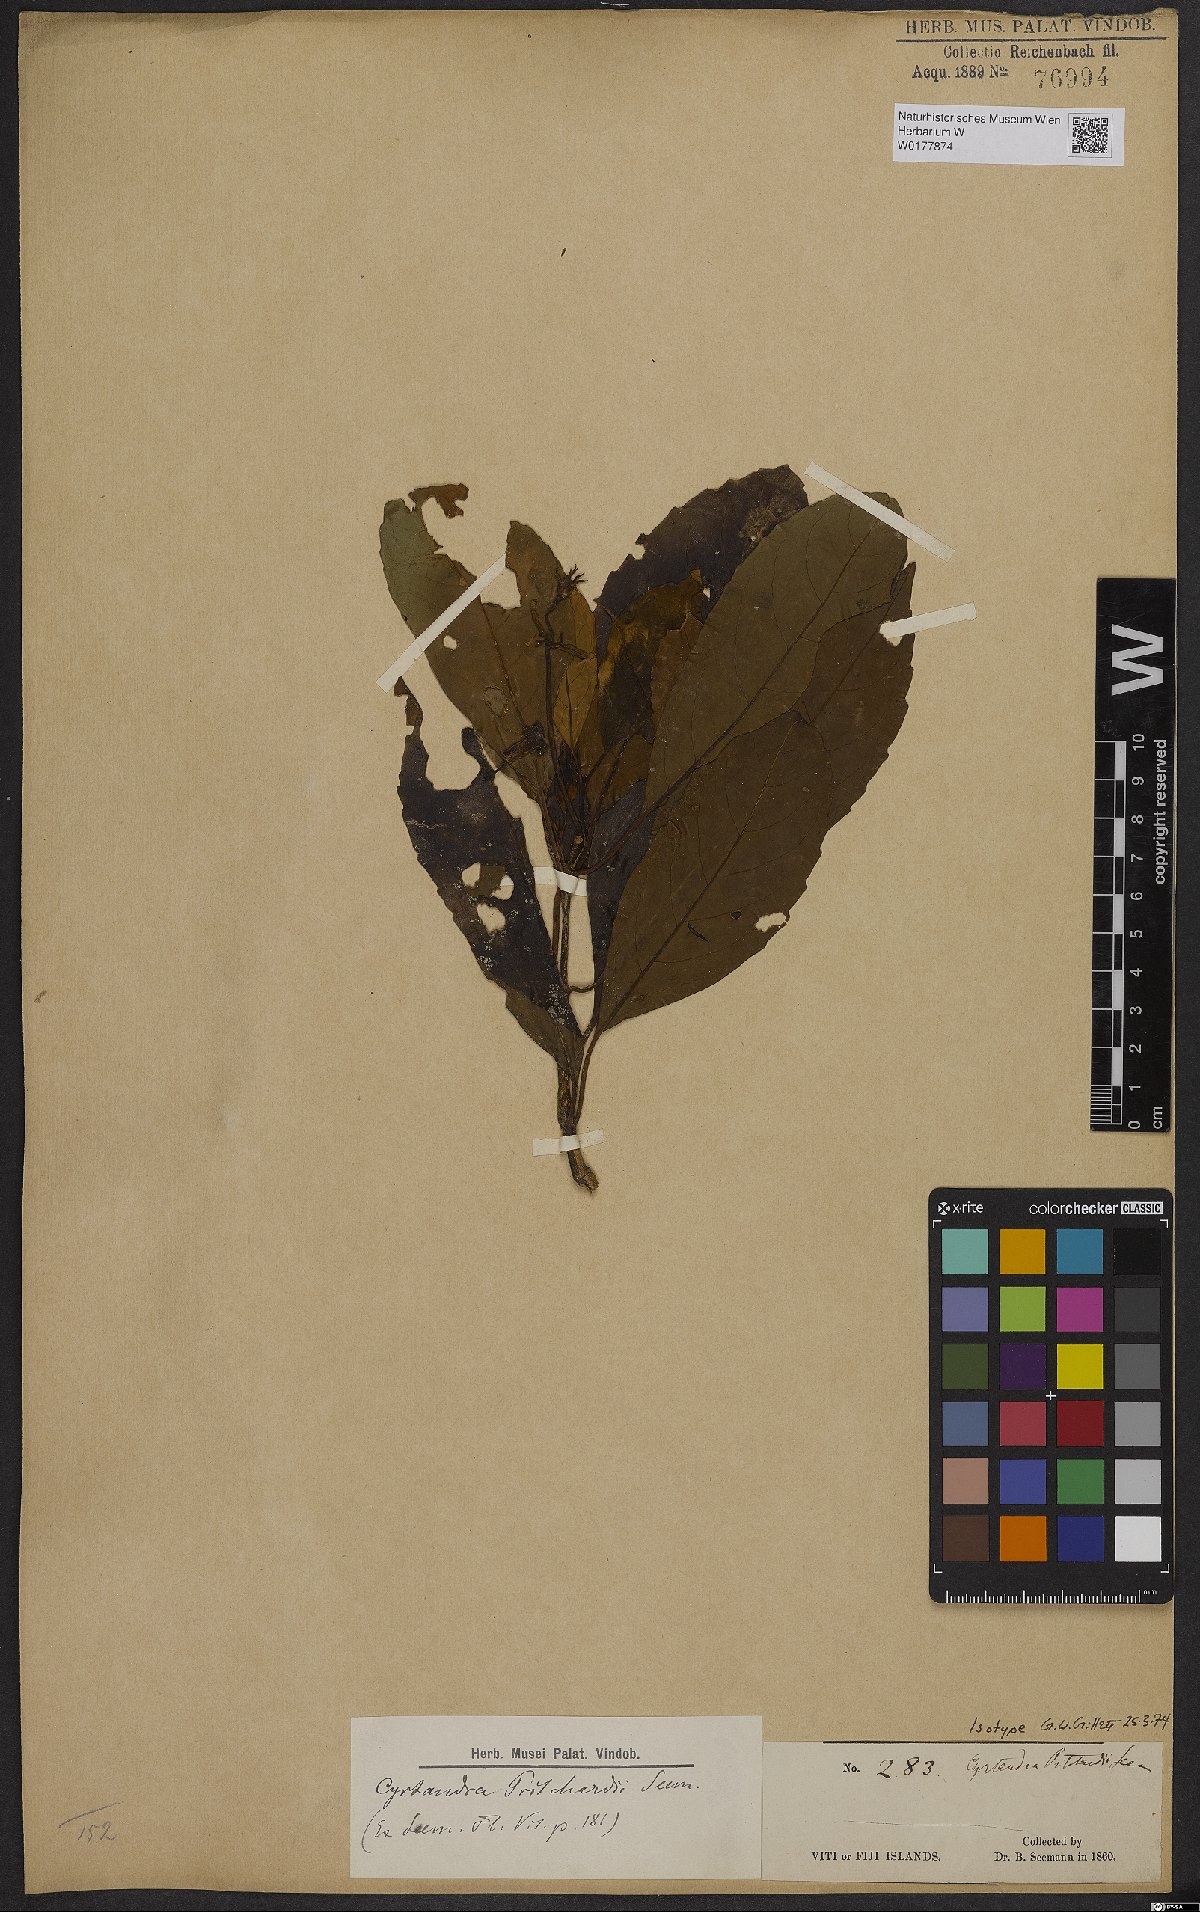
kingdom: Plantae
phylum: Tracheophyta
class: Magnoliopsida
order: Lamiales
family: Gesneriaceae
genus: Cyrtandra
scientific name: Cyrtandra
